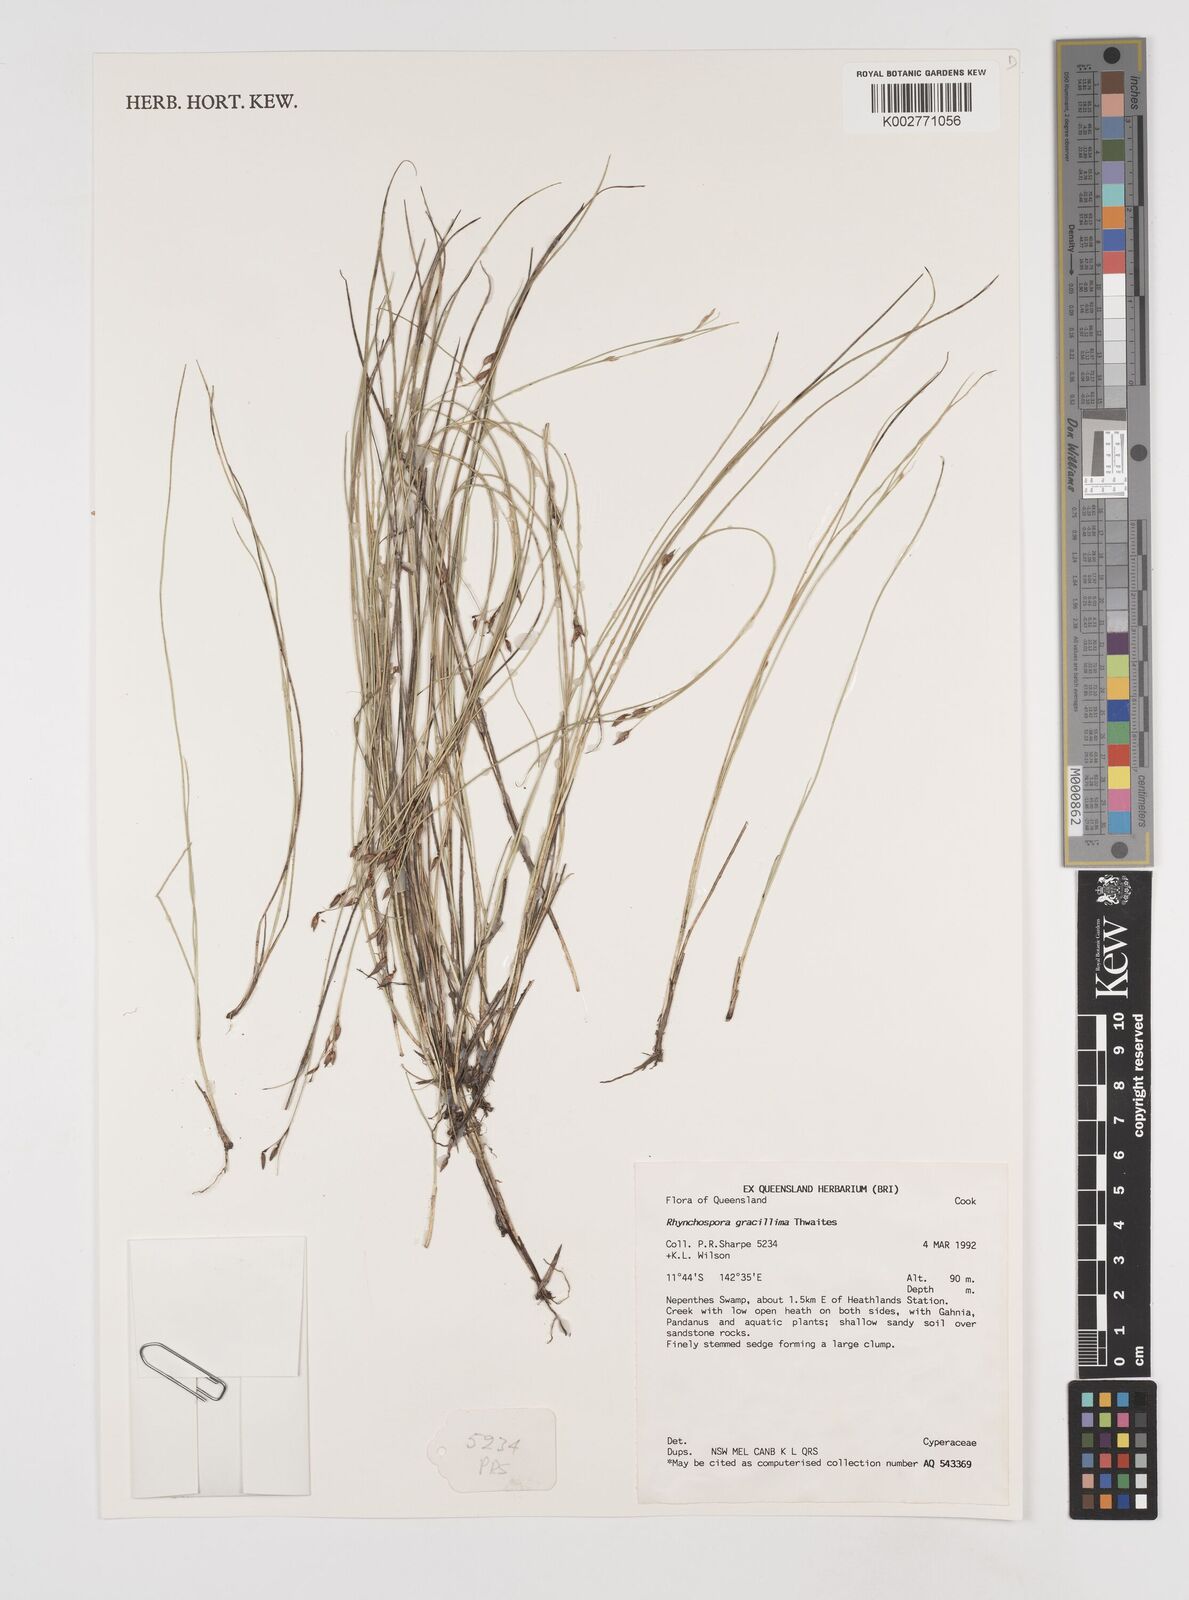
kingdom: Plantae
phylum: Tracheophyta
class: Liliopsida
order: Poales
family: Cyperaceae
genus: Rhynchospora
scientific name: Rhynchospora gracillima
